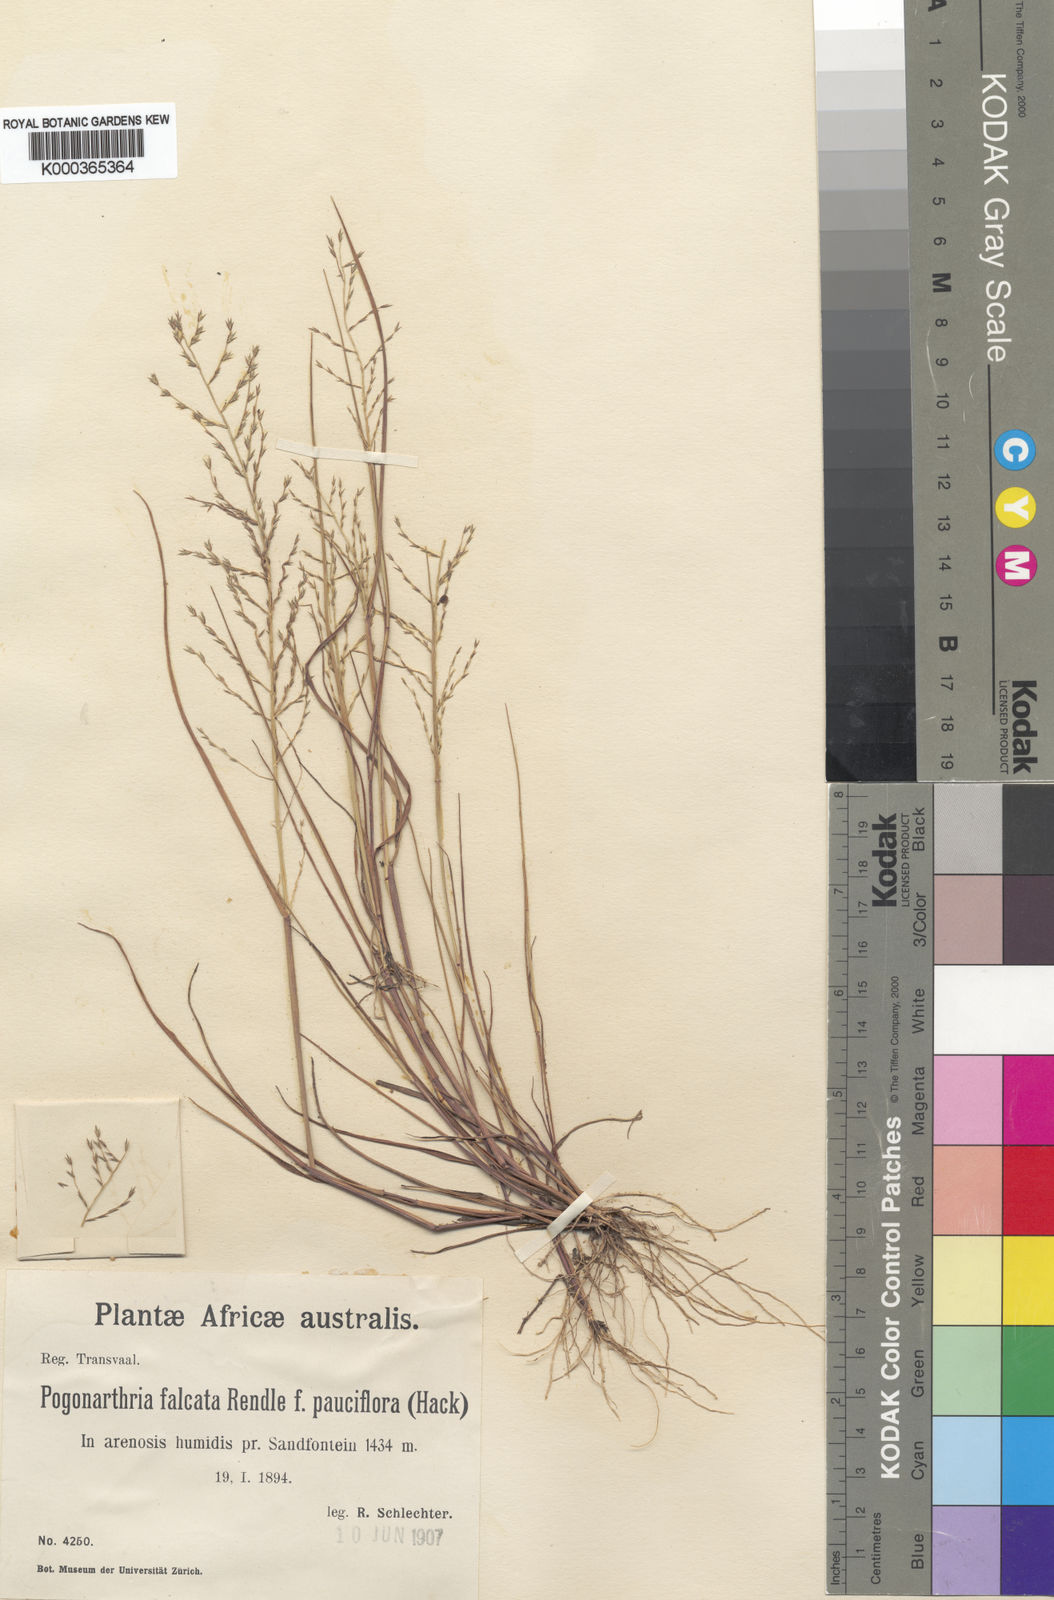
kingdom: Plantae
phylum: Tracheophyta
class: Liliopsida
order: Poales
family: Poaceae
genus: Pogonarthria
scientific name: Pogonarthria squarrosa
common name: Grass
